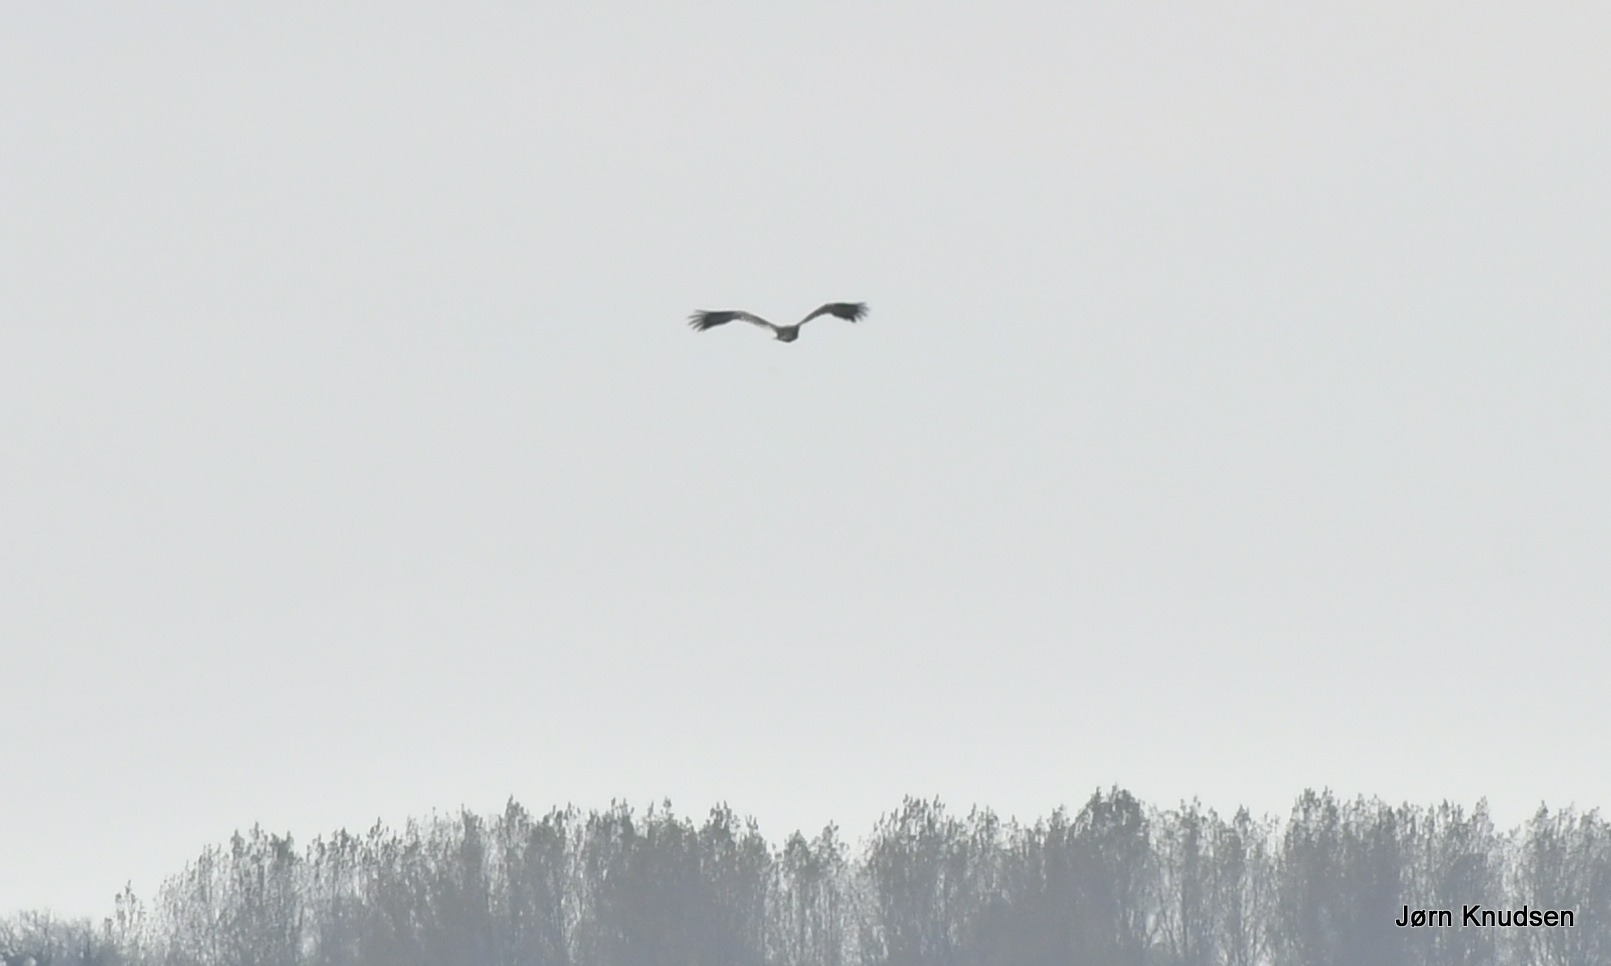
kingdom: Animalia
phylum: Chordata
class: Aves
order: Accipitriformes
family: Accipitridae
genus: Haliaeetus
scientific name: Haliaeetus albicilla
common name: Havørn
